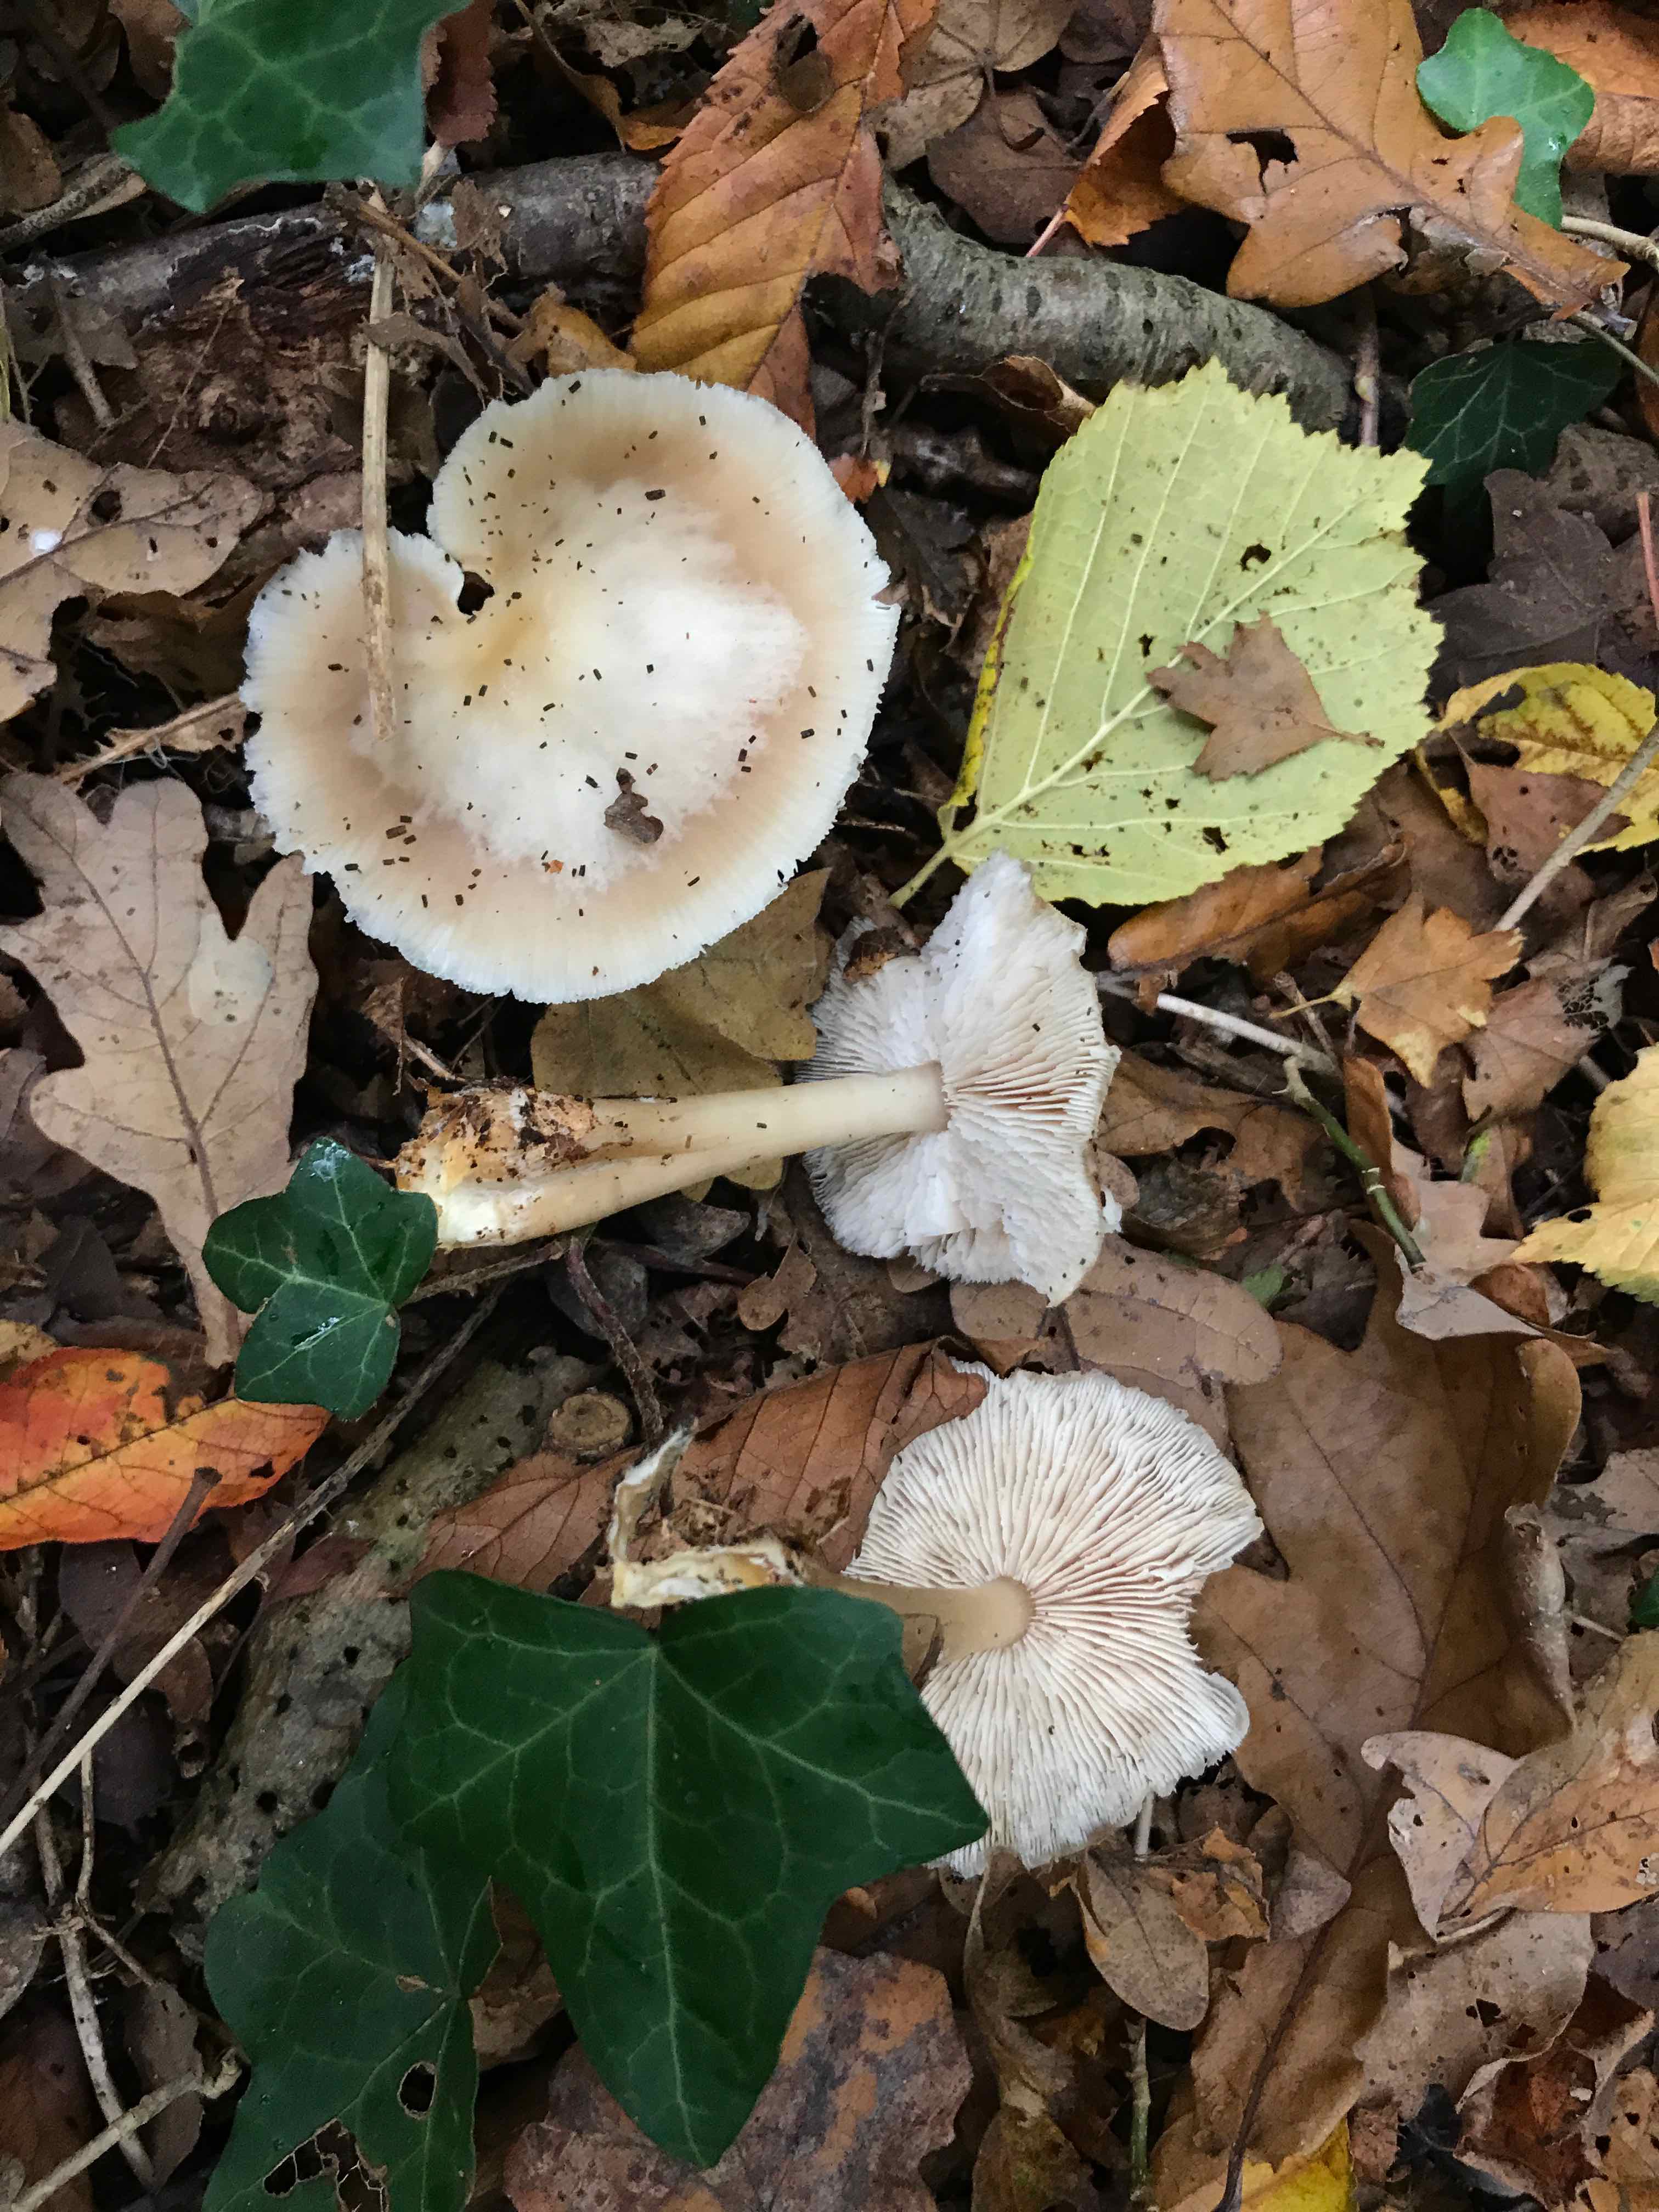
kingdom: Fungi
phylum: Basidiomycota
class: Agaricomycetes
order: Agaricales
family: Omphalotaceae
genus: Rhodocollybia
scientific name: Rhodocollybia asema
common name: horngrå fladhat
